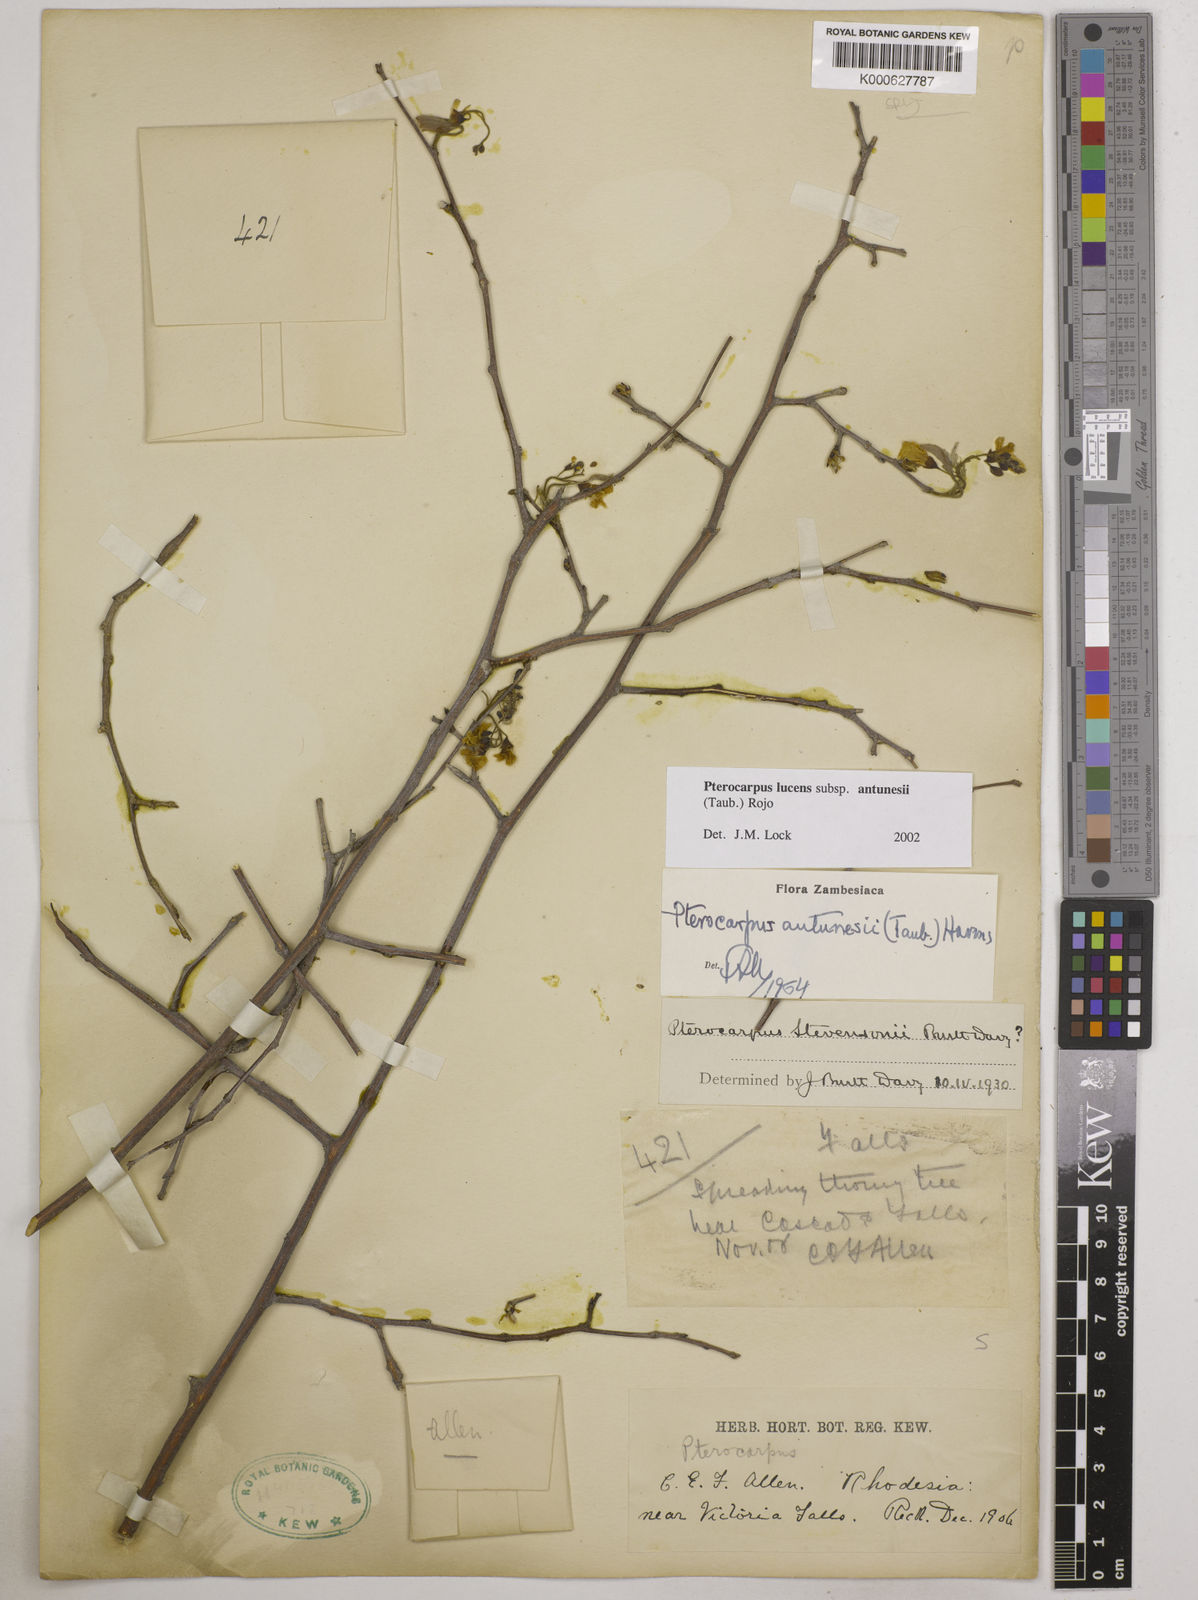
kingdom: Plantae
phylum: Tracheophyta
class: Magnoliopsida
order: Fabales
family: Fabaceae
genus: Pterocarpus
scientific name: Pterocarpus lucens
